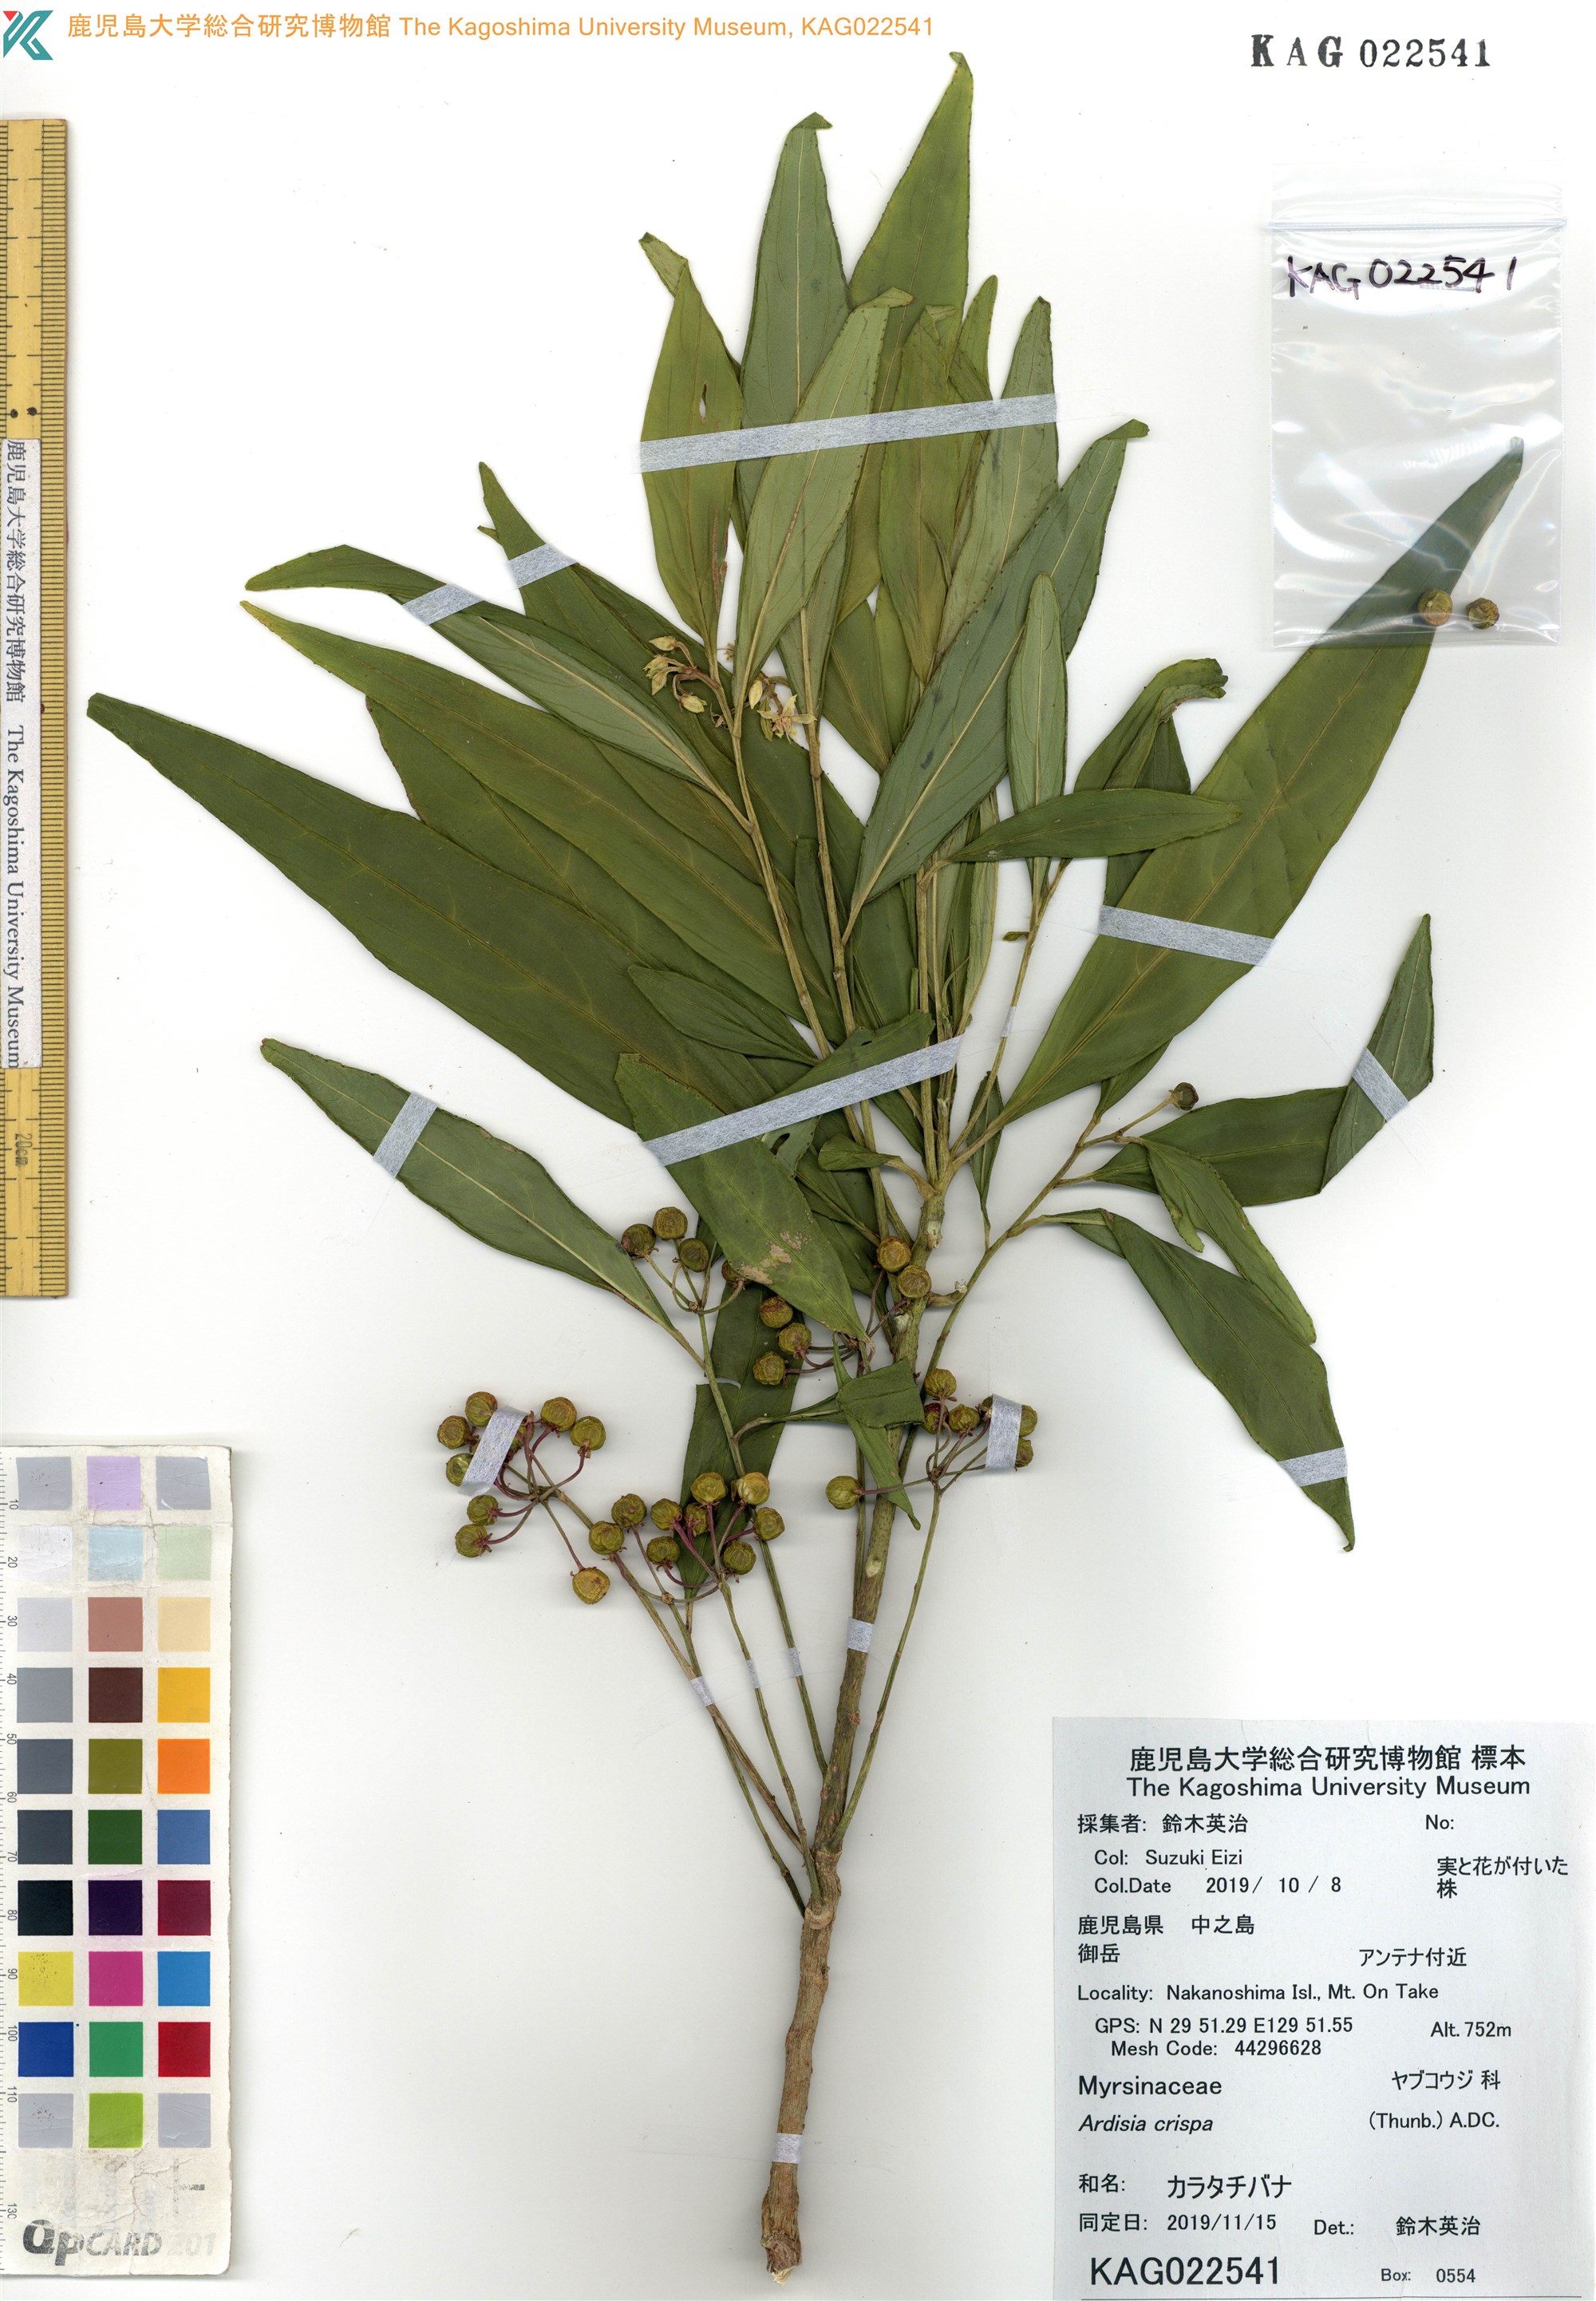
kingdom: Plantae
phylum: Tracheophyta
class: Magnoliopsida
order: Ericales
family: Primulaceae
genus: Ardisia
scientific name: Ardisia crispa
